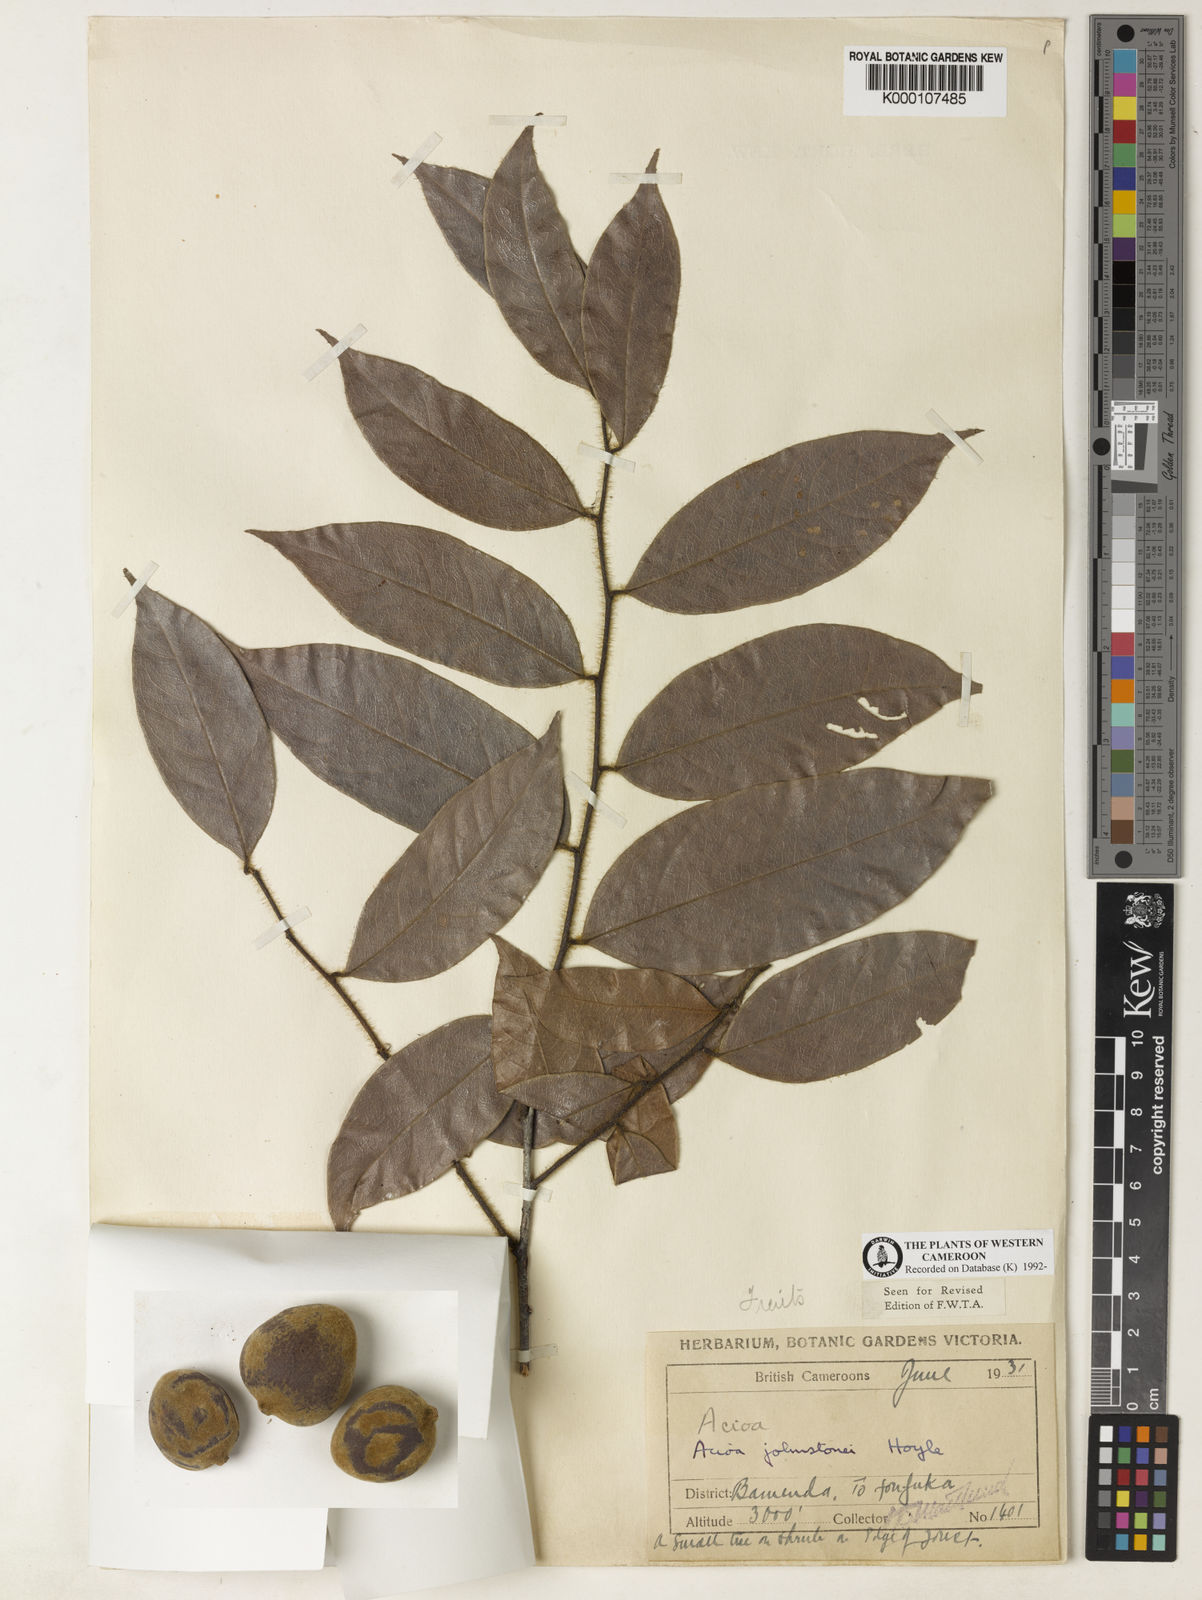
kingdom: Plantae
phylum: Tracheophyta
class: Magnoliopsida
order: Malpighiales
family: Chrysobalanaceae
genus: Dactyladenia
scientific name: Dactyladenia johnstonei
